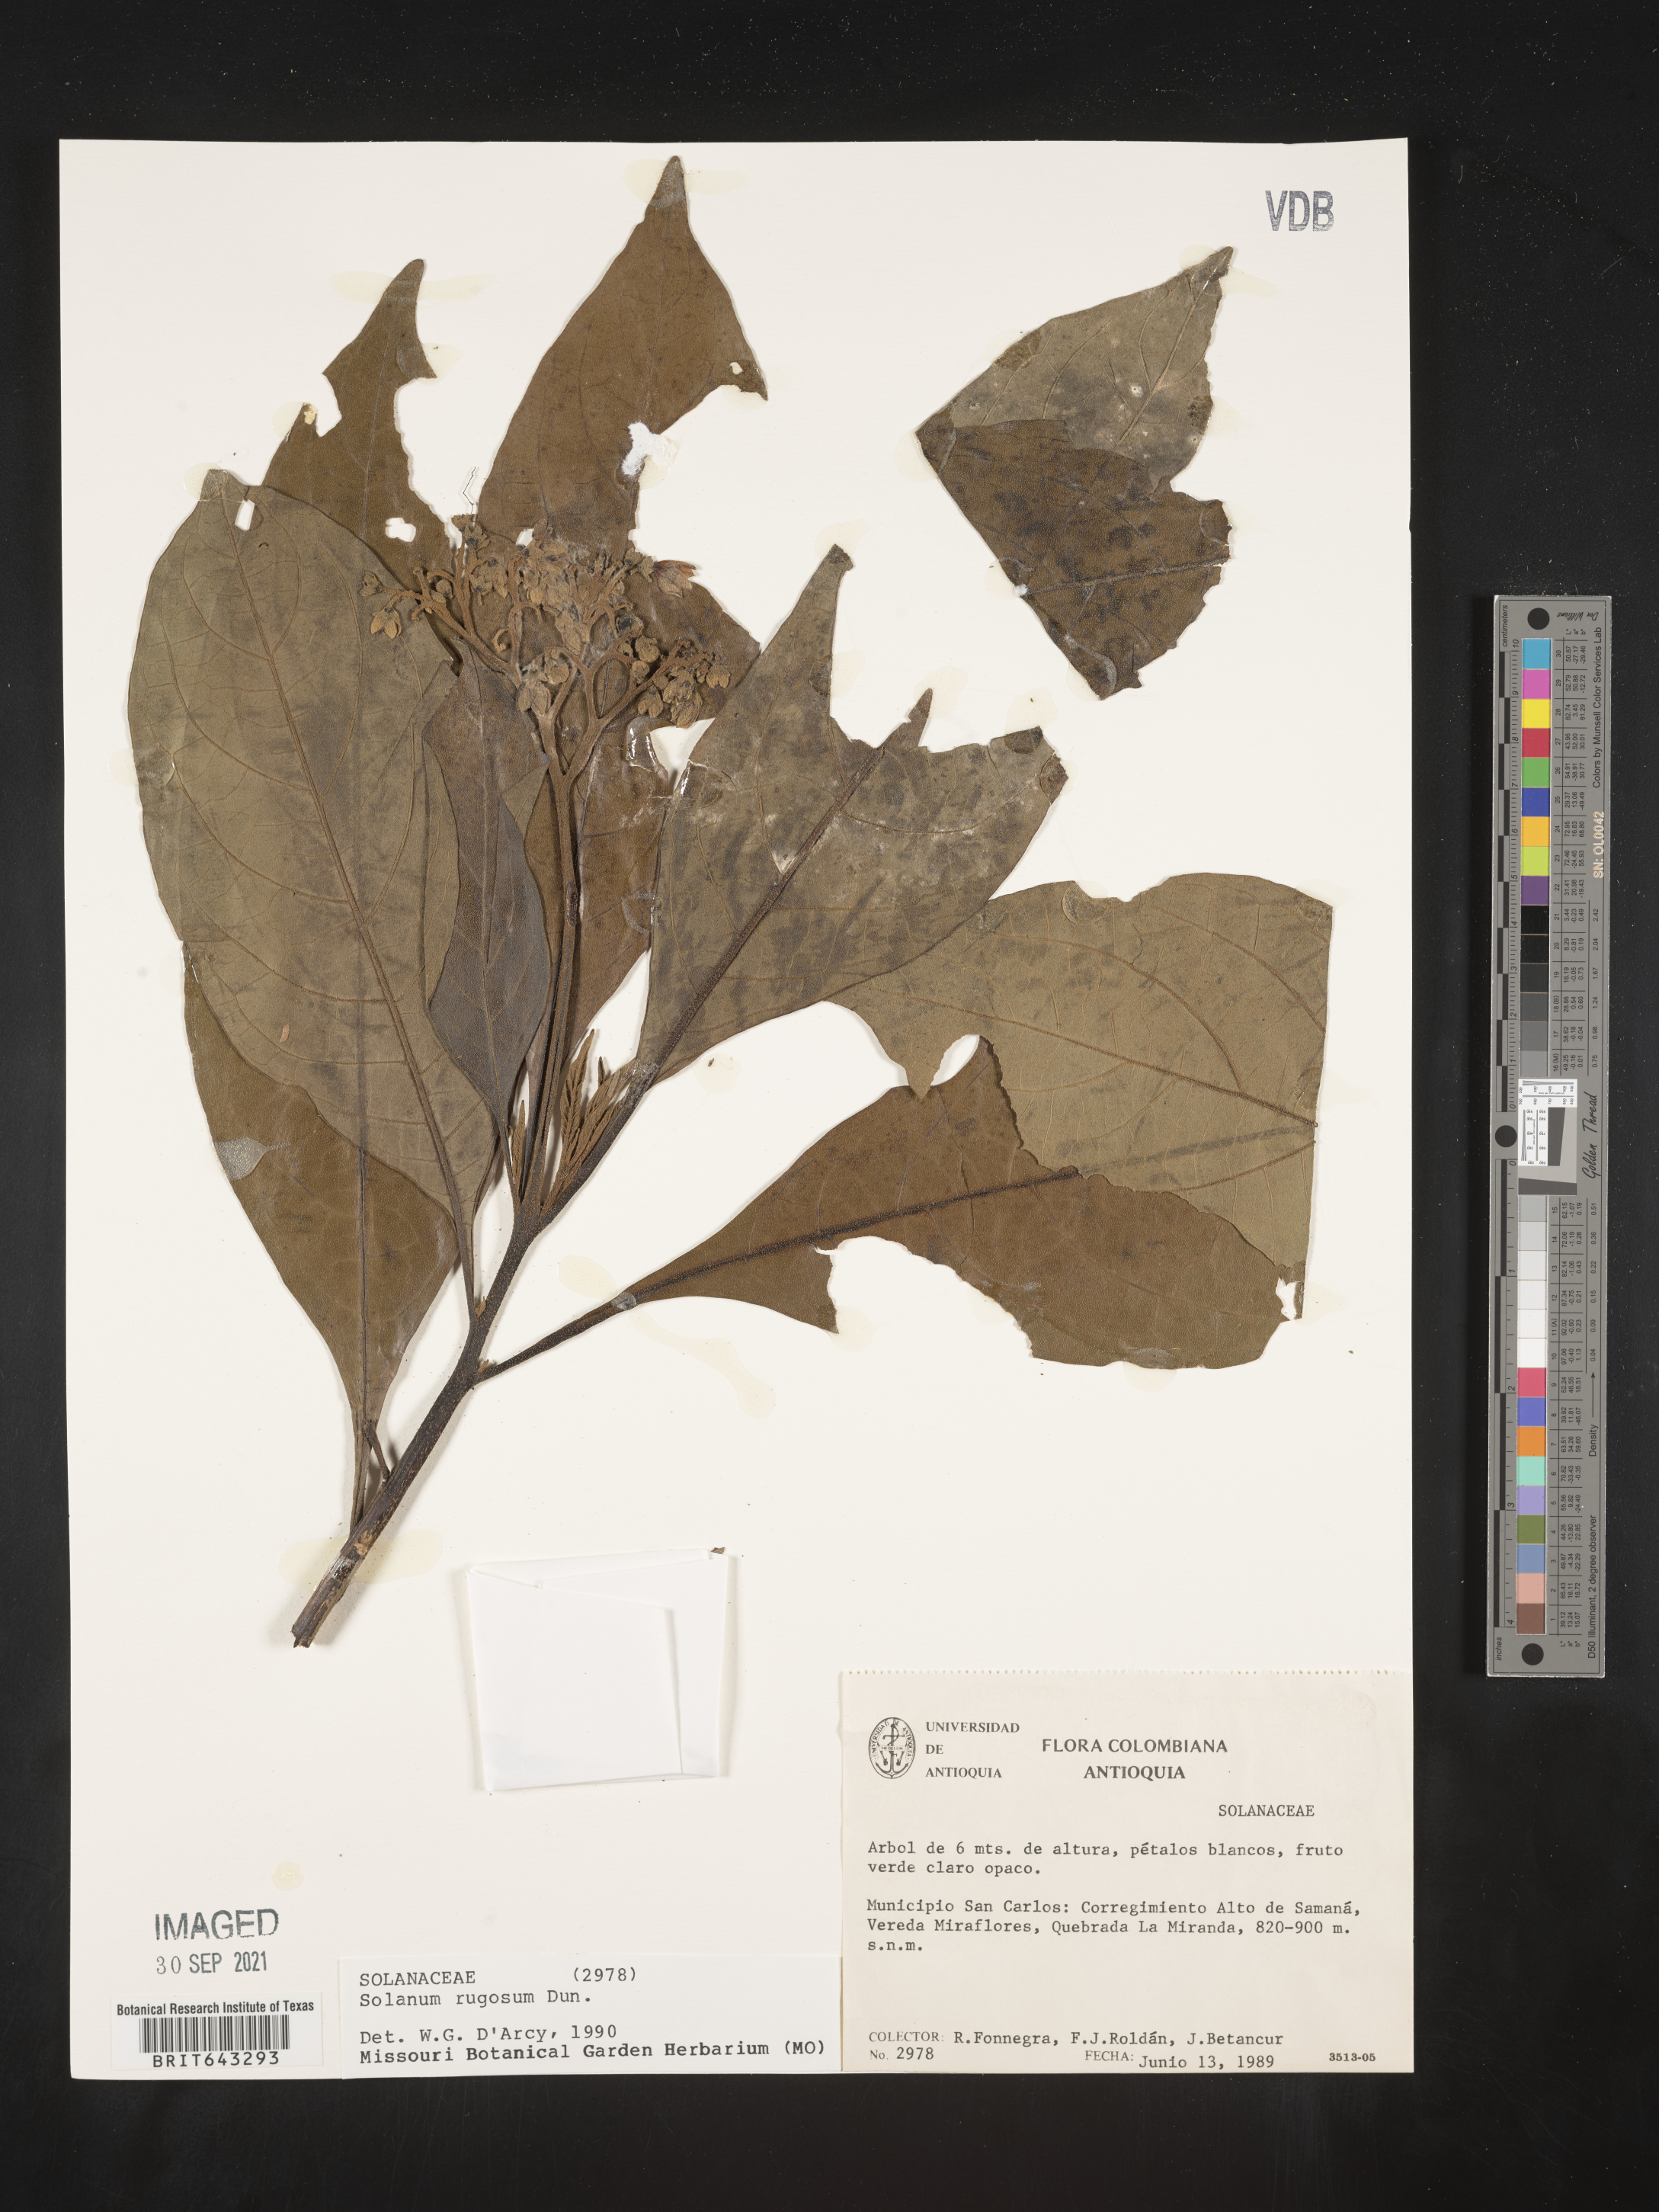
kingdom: Plantae
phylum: Tracheophyta
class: Magnoliopsida
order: Solanales
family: Solanaceae
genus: Solanum
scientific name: Solanum
